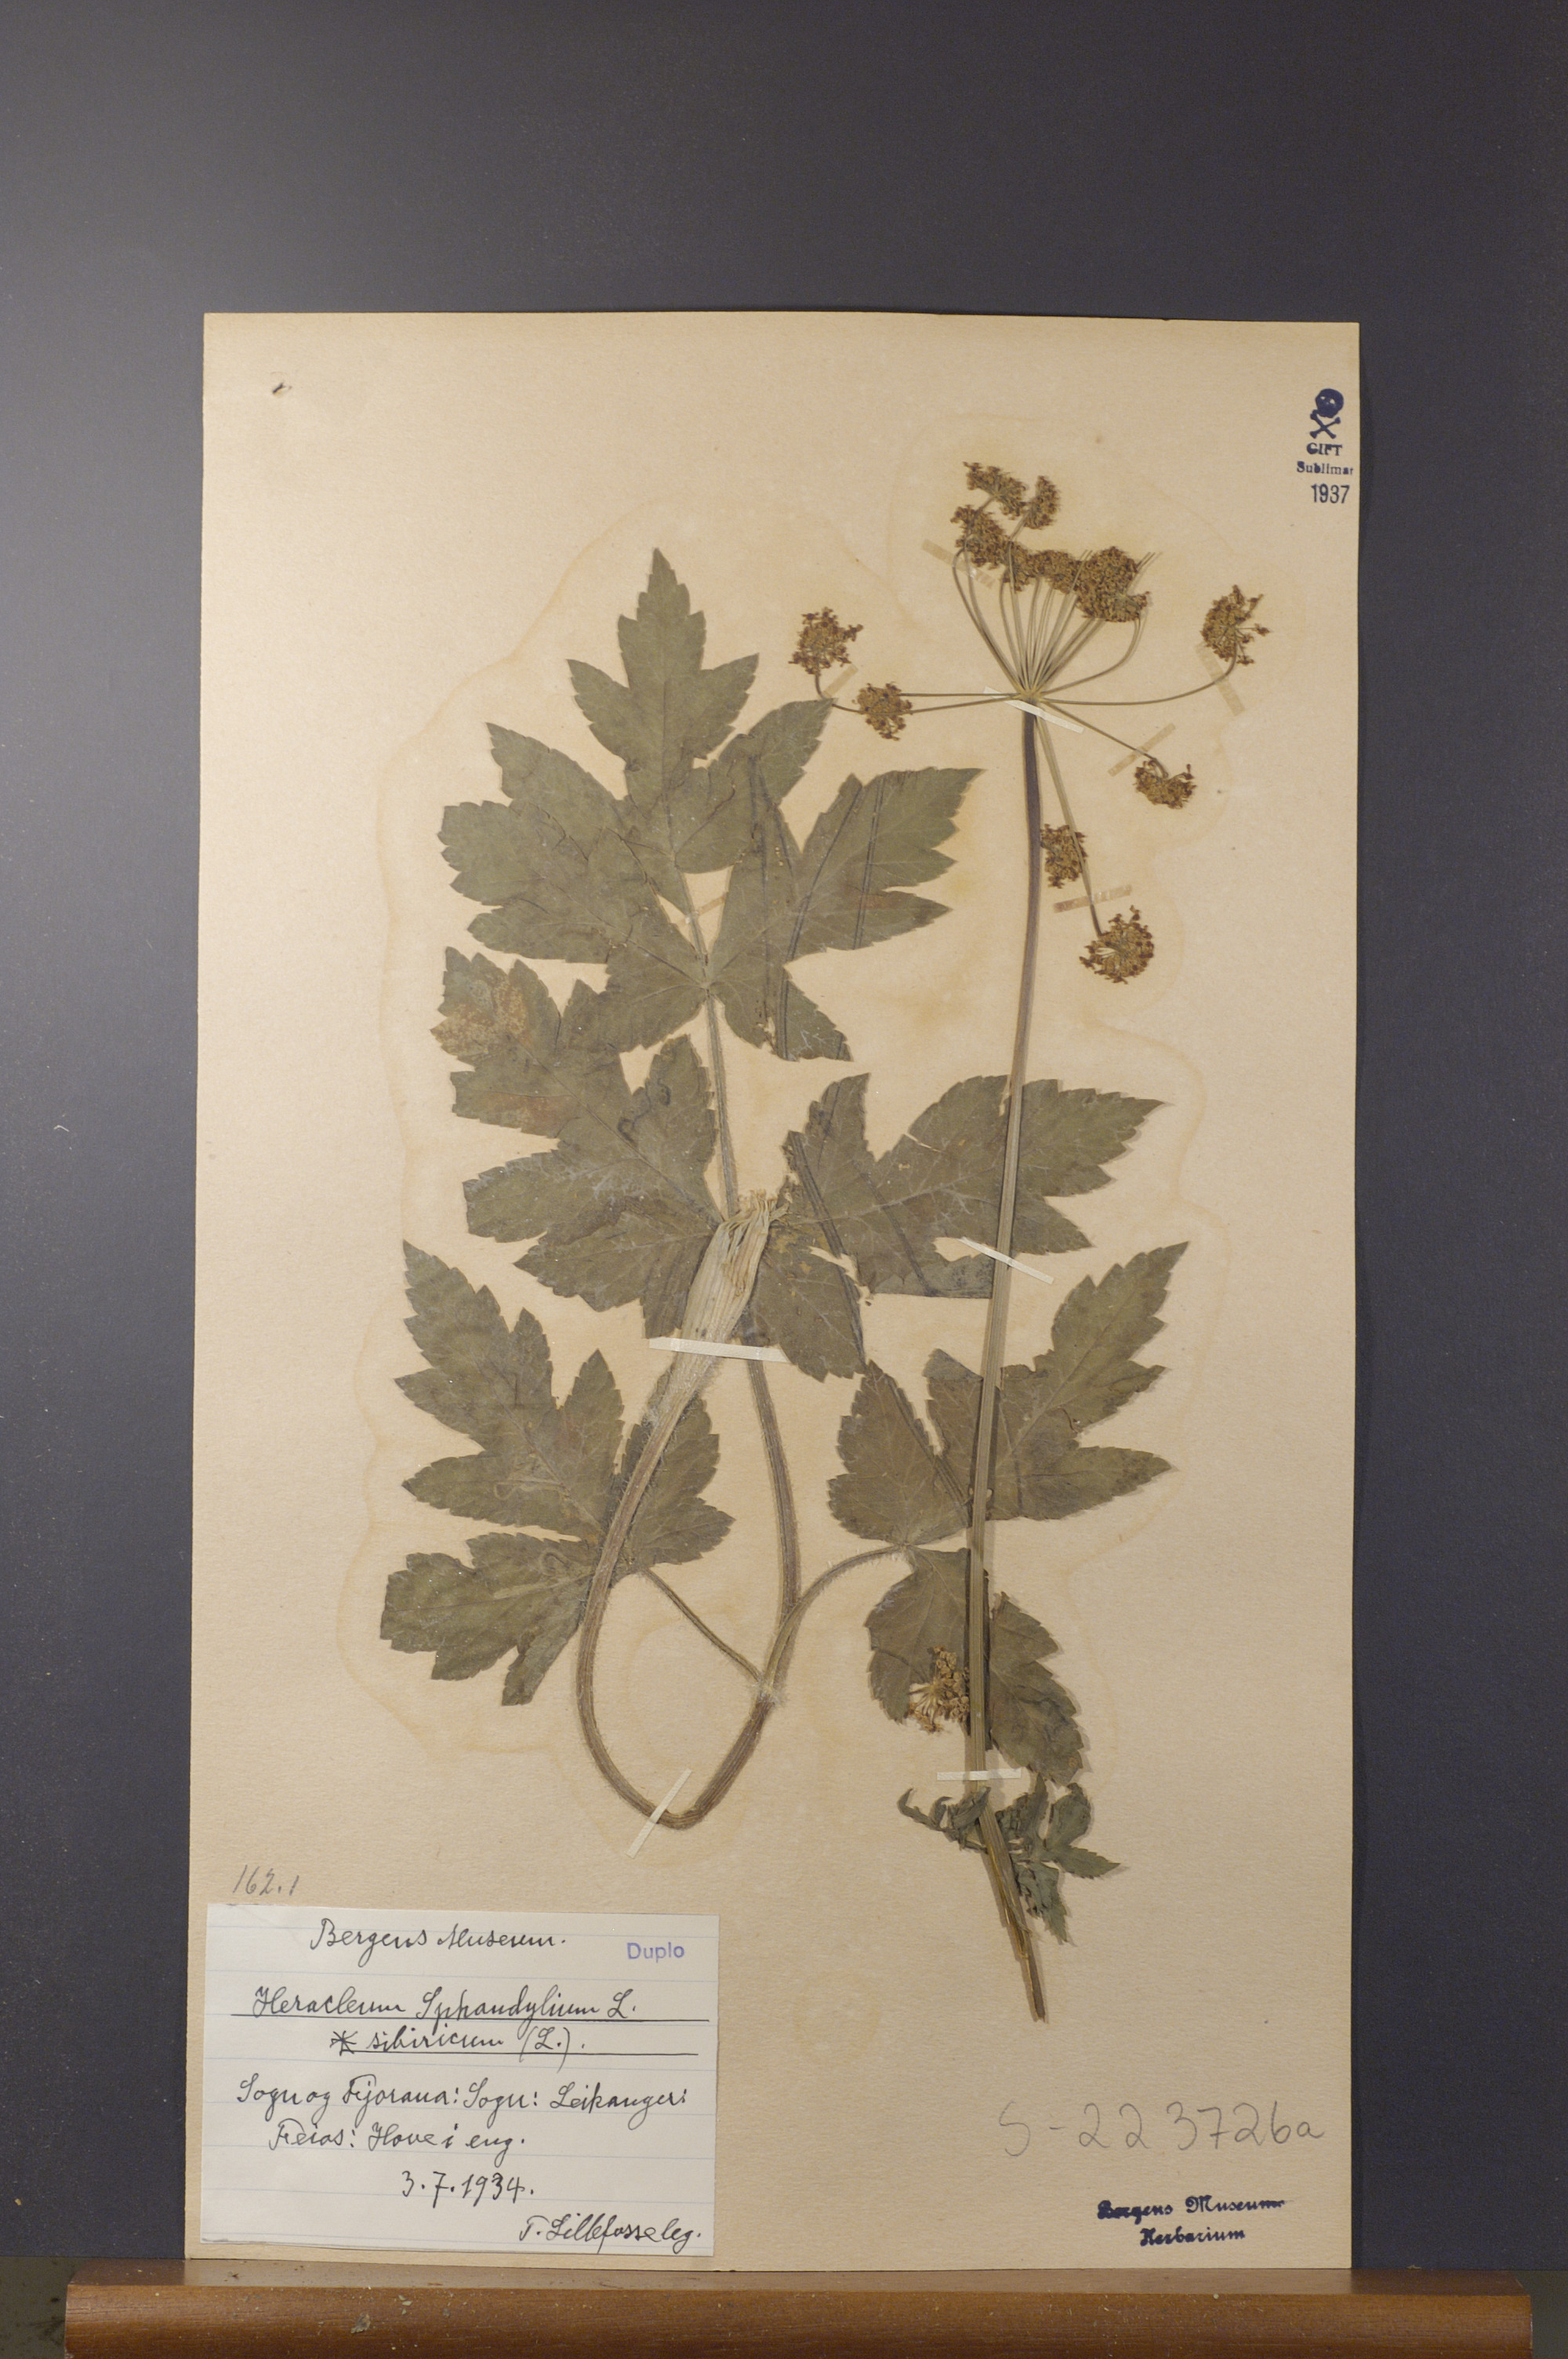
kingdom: Plantae
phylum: Tracheophyta
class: Magnoliopsida
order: Apiales
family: Apiaceae
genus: Heracleum
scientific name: Heracleum sphondylium
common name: Hogweed
